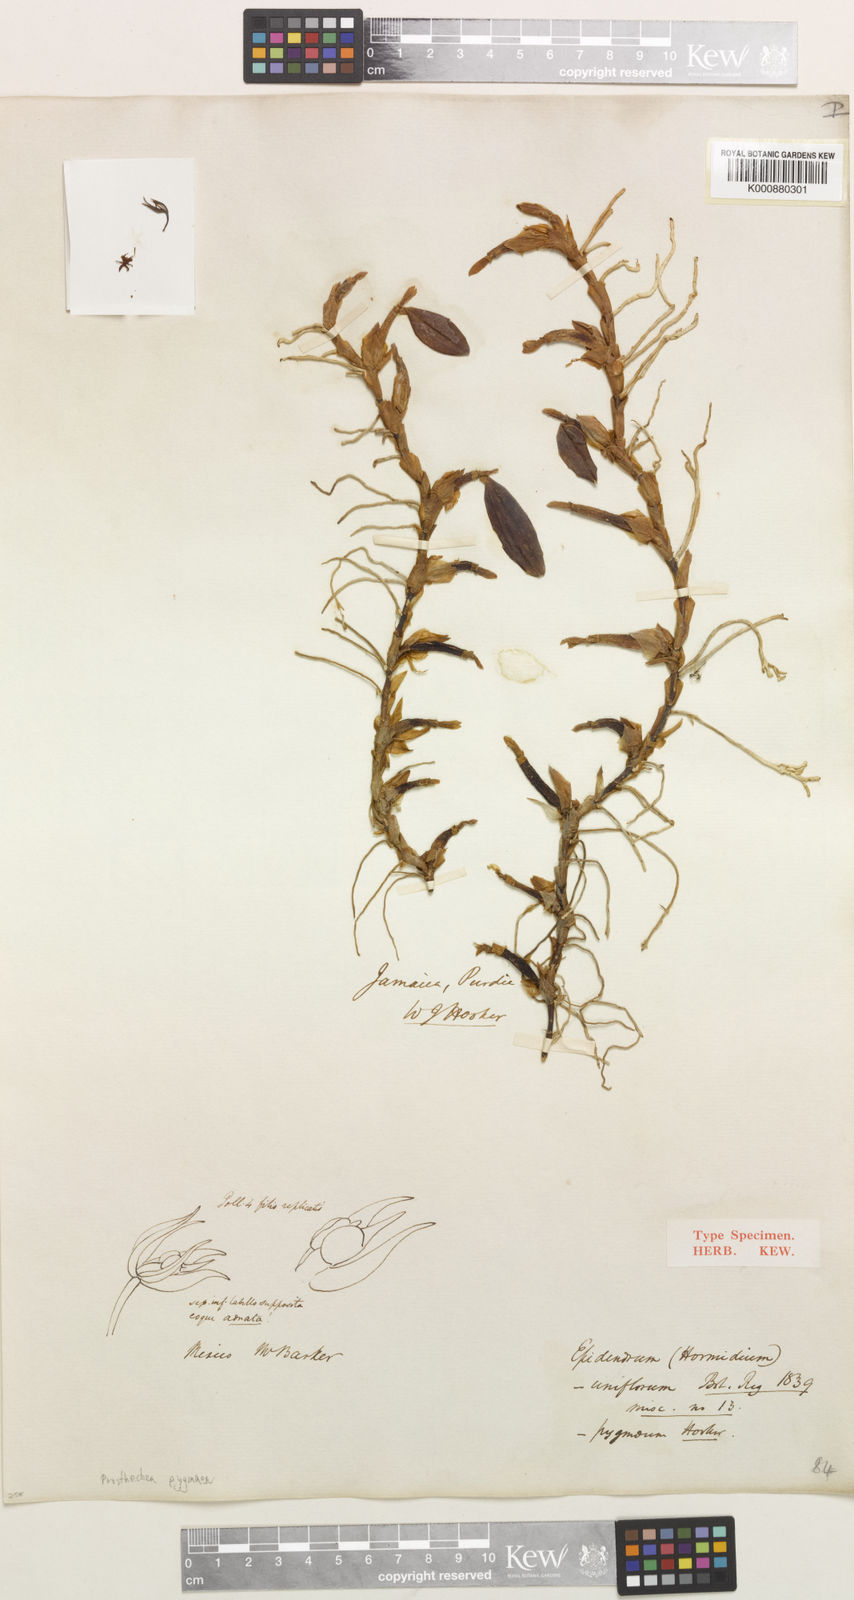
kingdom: Plantae
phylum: Tracheophyta
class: Liliopsida
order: Asparagales
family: Orchidaceae
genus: Prosthechea
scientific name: Prosthechea pygmaea
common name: Dwarf butterfly orchid
